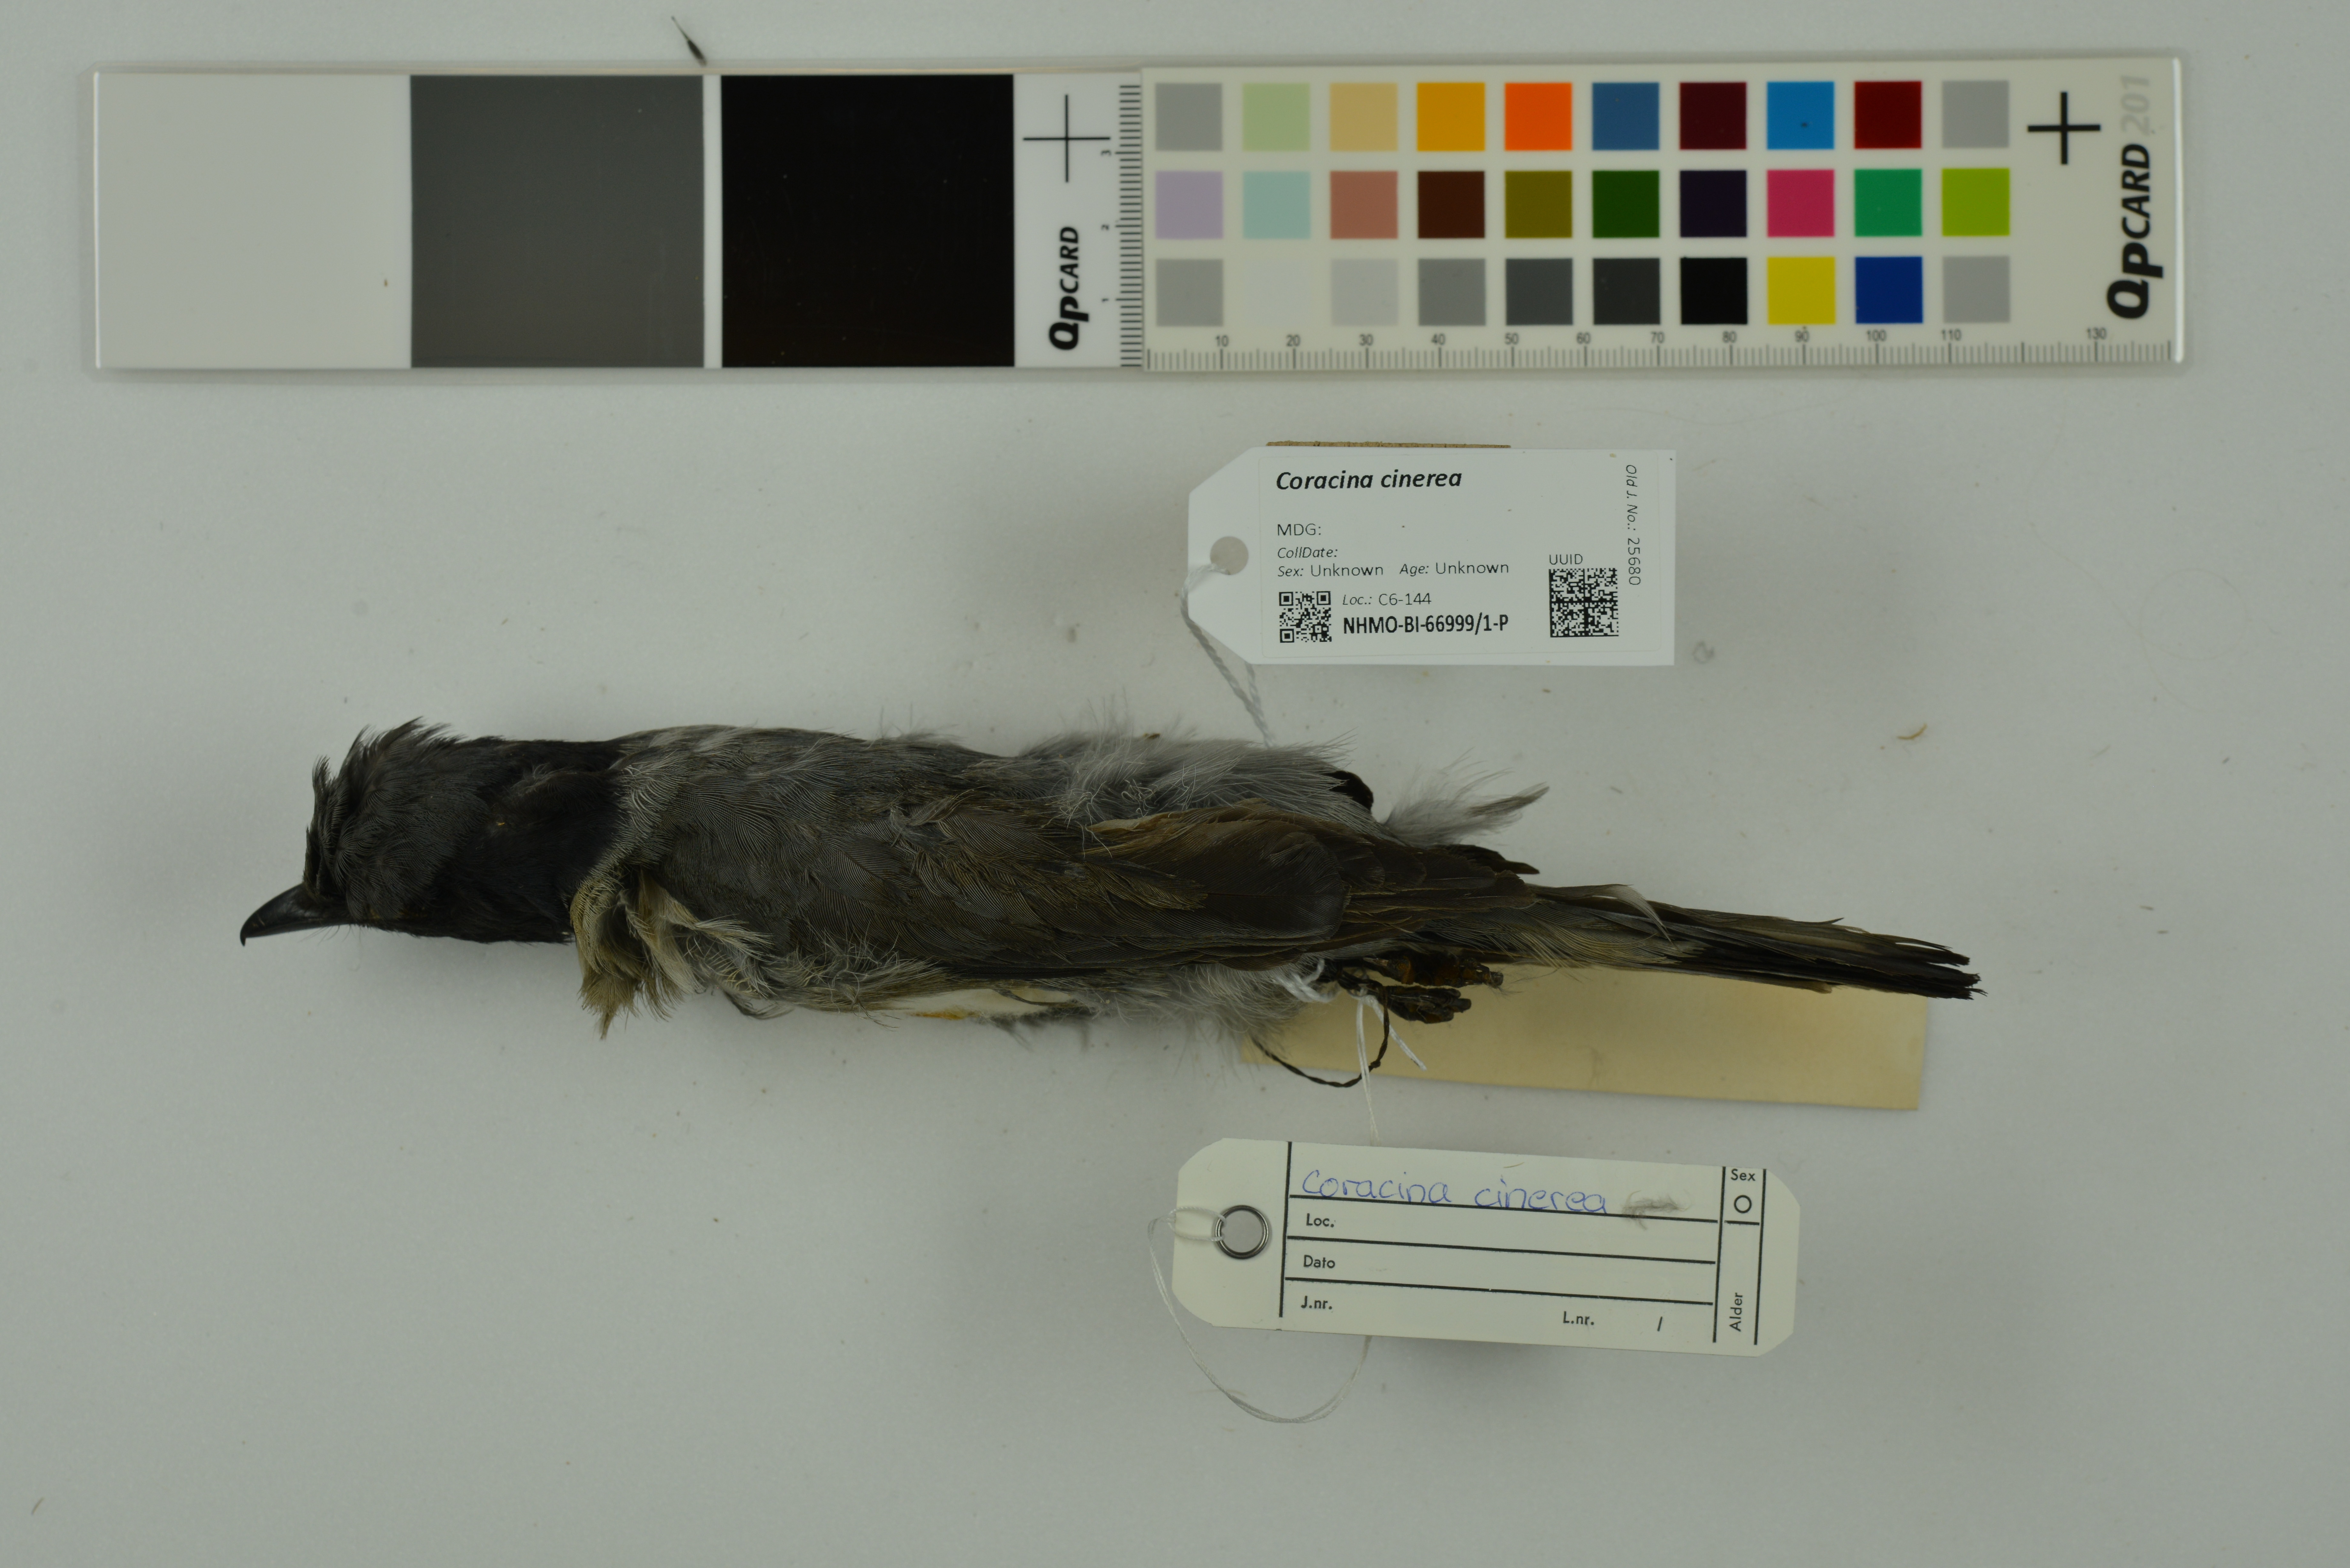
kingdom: Animalia
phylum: Chordata
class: Aves
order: Passeriformes
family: Campephagidae
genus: Coracina
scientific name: Coracina cinerea
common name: Madagascan cuckooshrike
